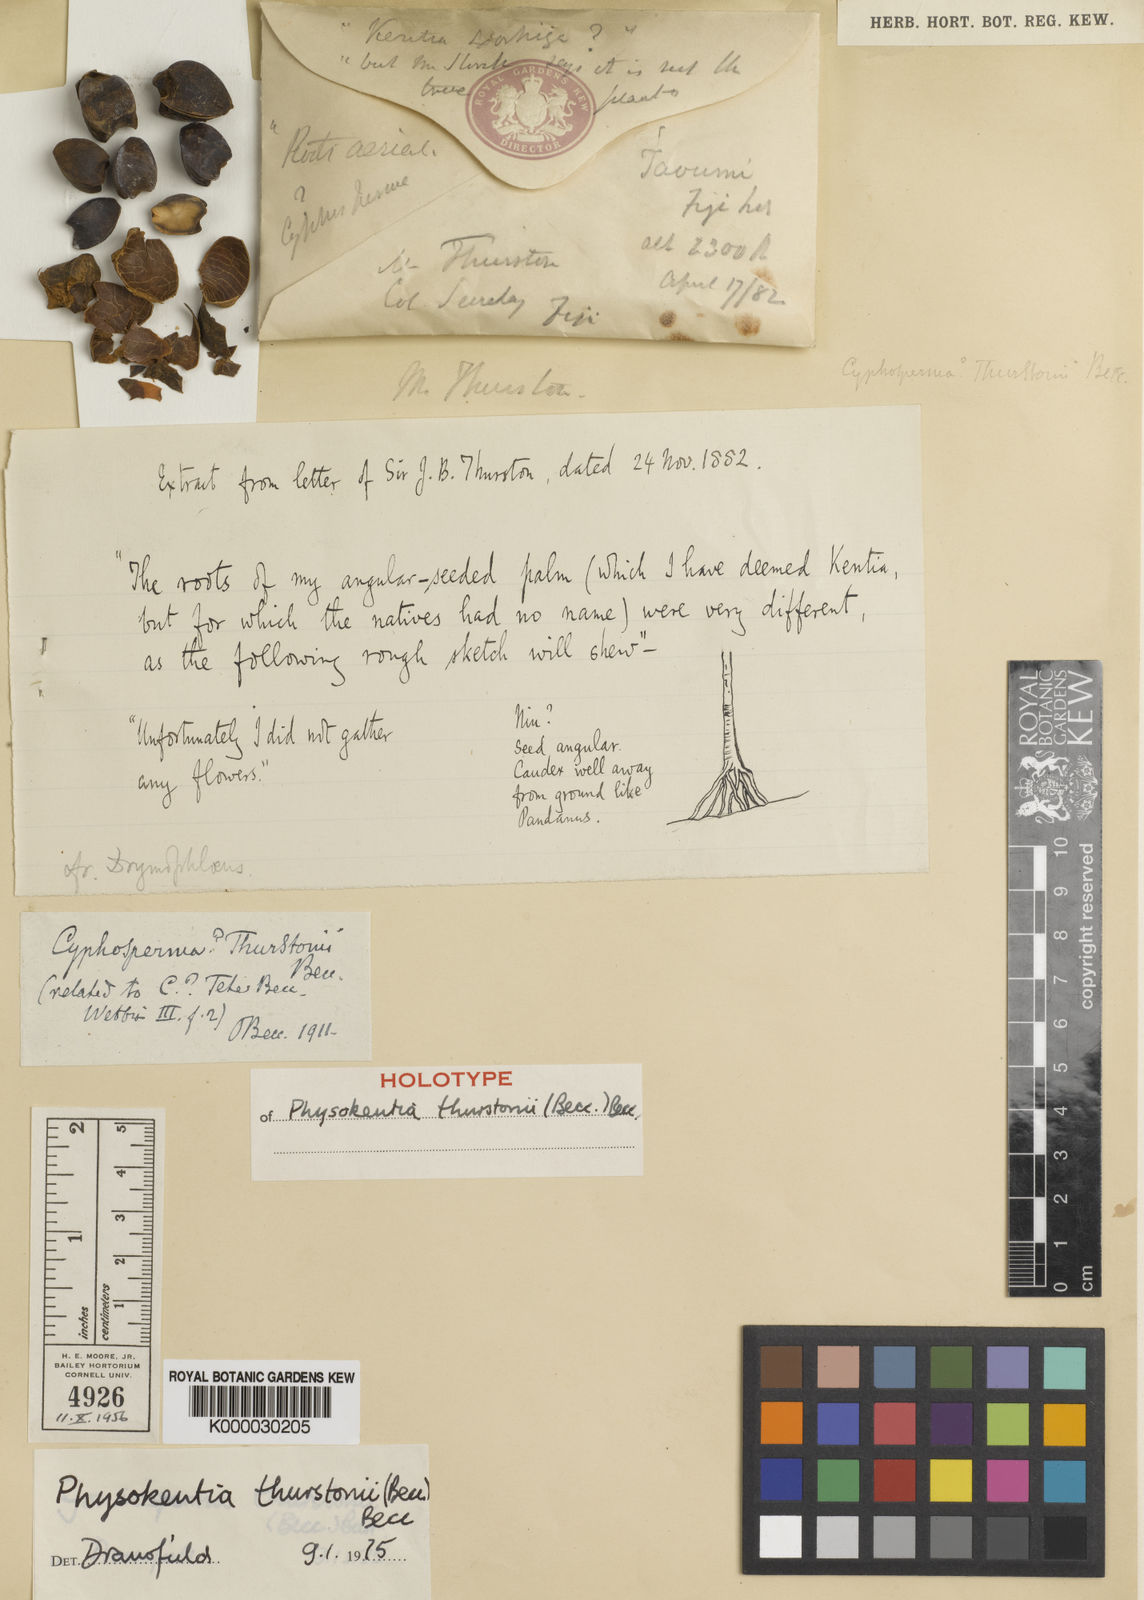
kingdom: Plantae
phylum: Tracheophyta
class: Liliopsida
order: Arecales
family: Arecaceae
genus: Physokentia
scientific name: Physokentia thurstonii
